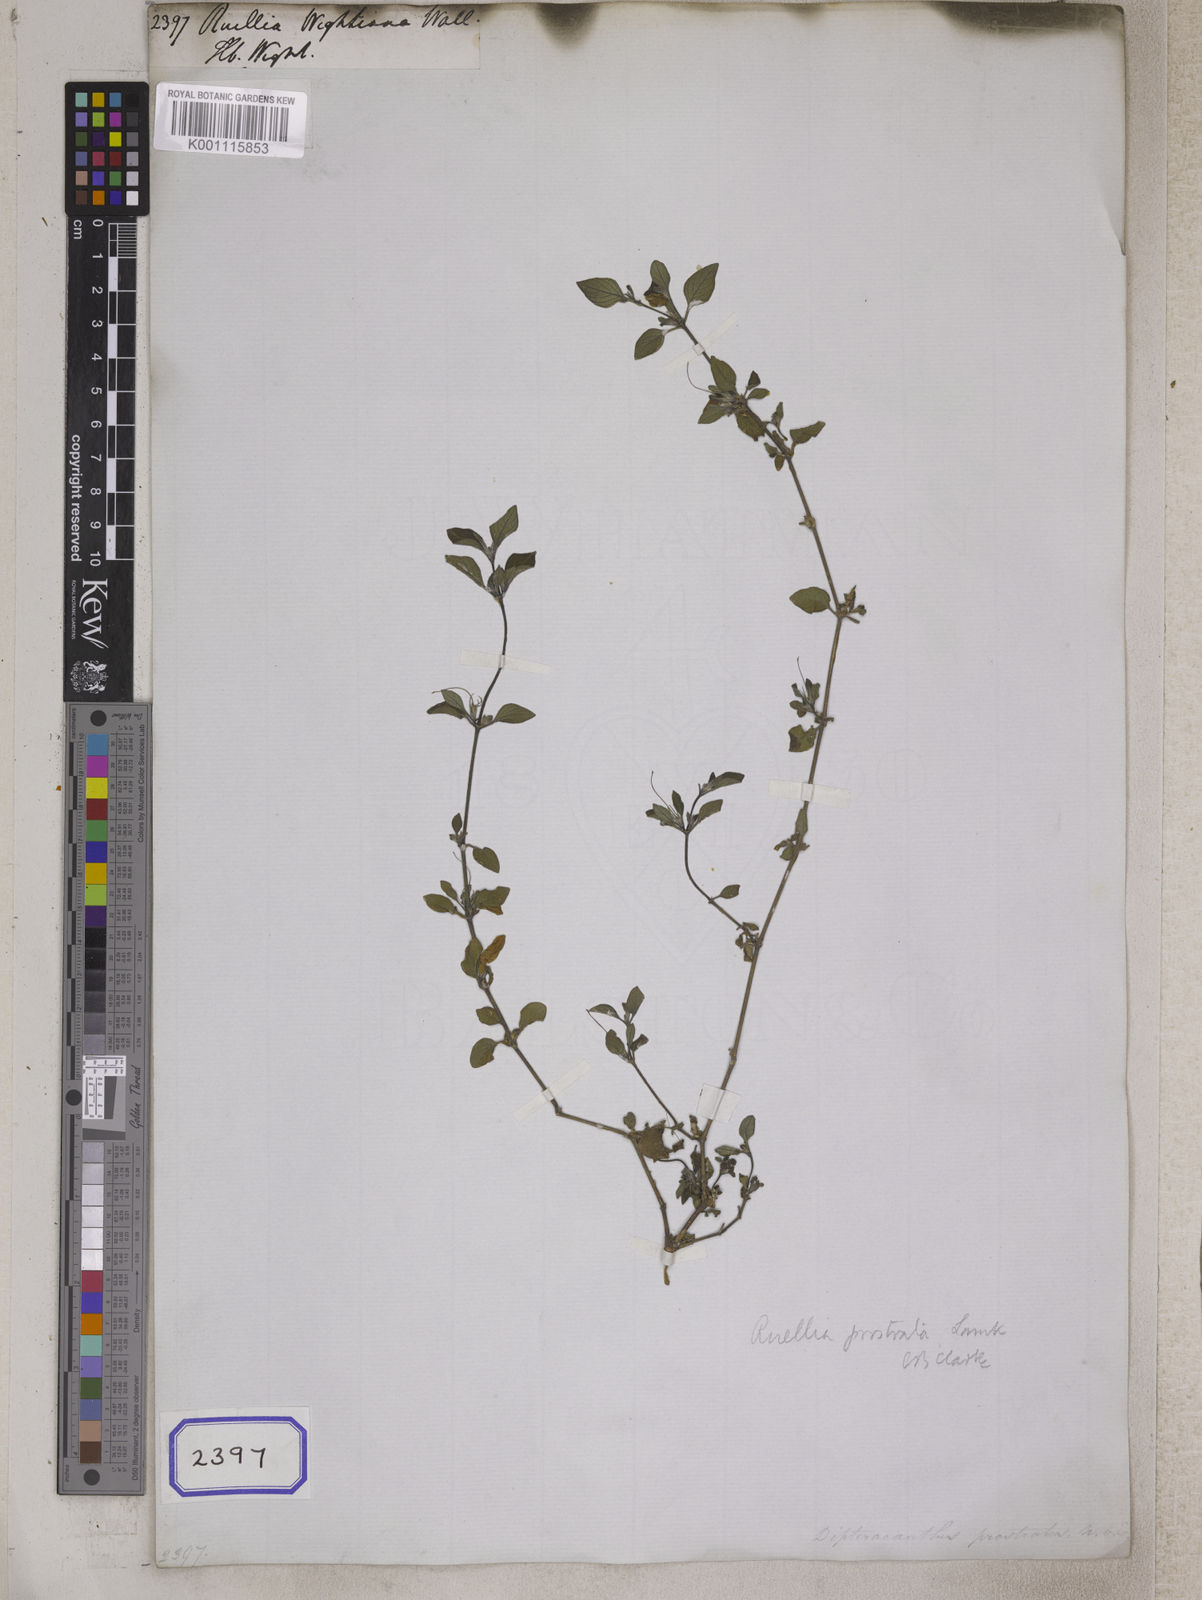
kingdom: Plantae
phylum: Tracheophyta
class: Magnoliopsida
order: Lamiales
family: Acanthaceae
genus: Ruellia
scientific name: Ruellia prostrata
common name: Prostrate wild petunia
